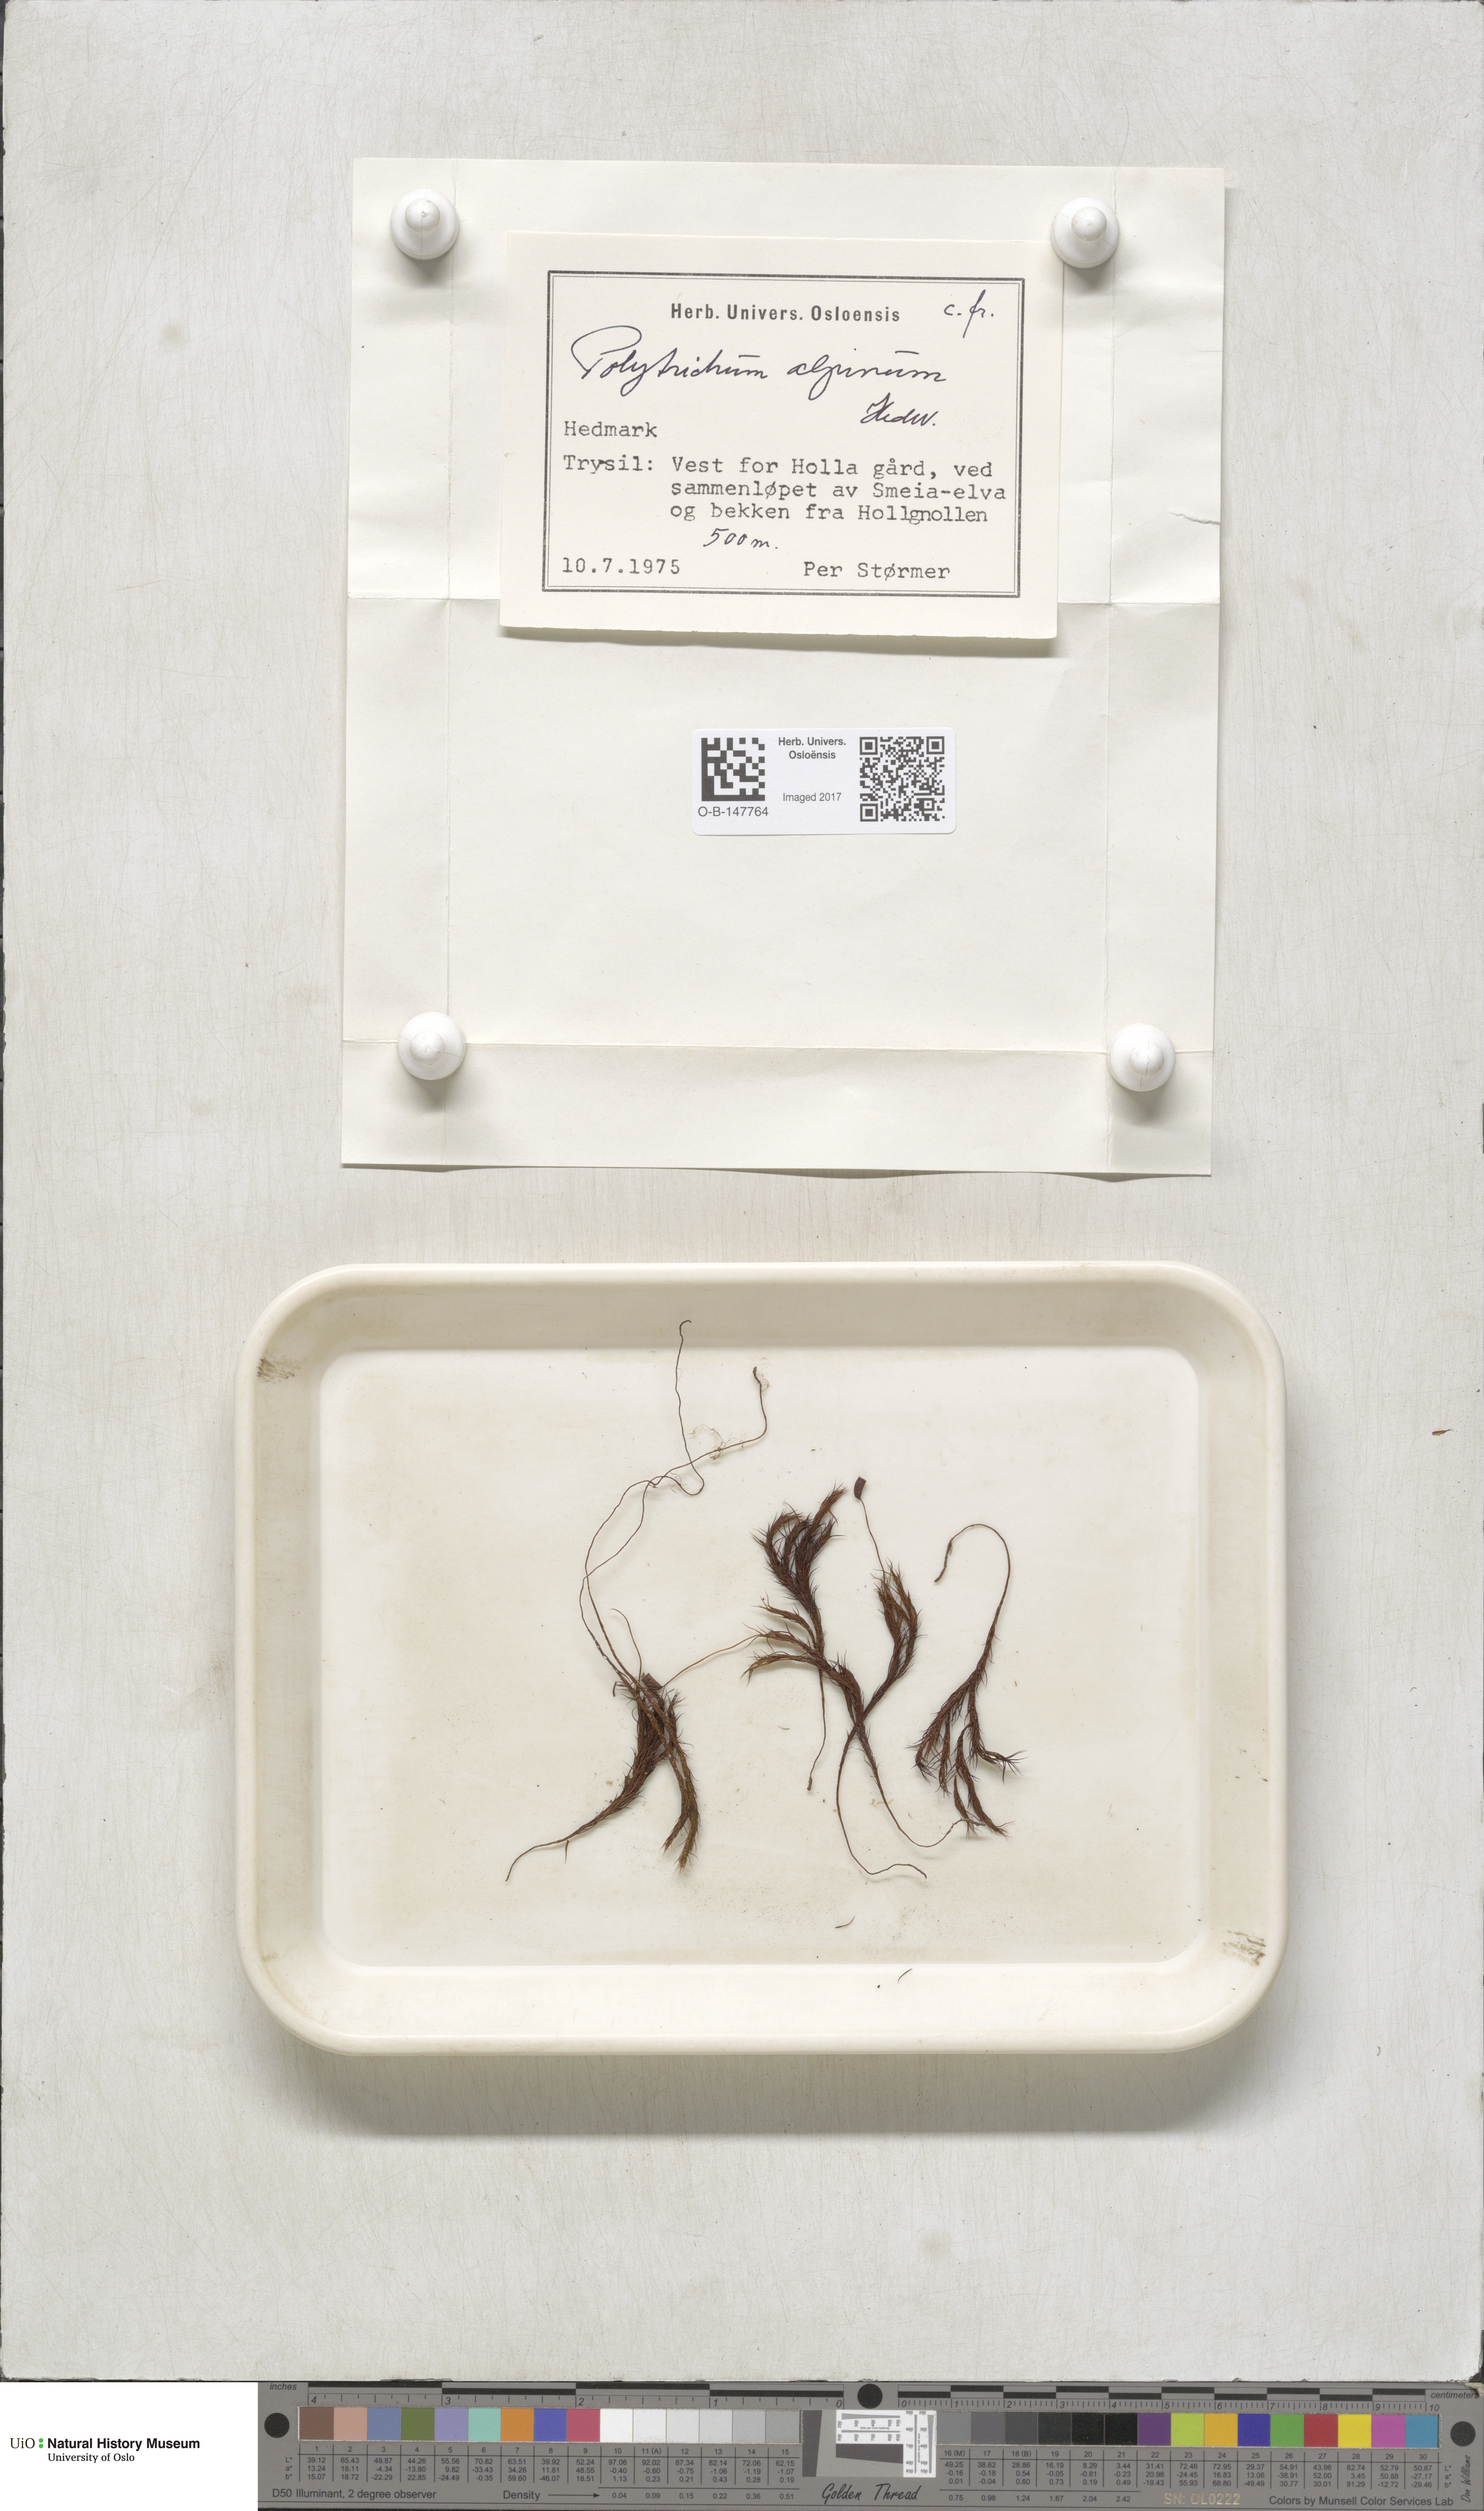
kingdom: Plantae
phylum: Bryophyta
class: Polytrichopsida
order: Polytrichales
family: Polytrichaceae
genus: Polytrichastrum
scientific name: Polytrichastrum alpinum
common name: Alpine haircap
